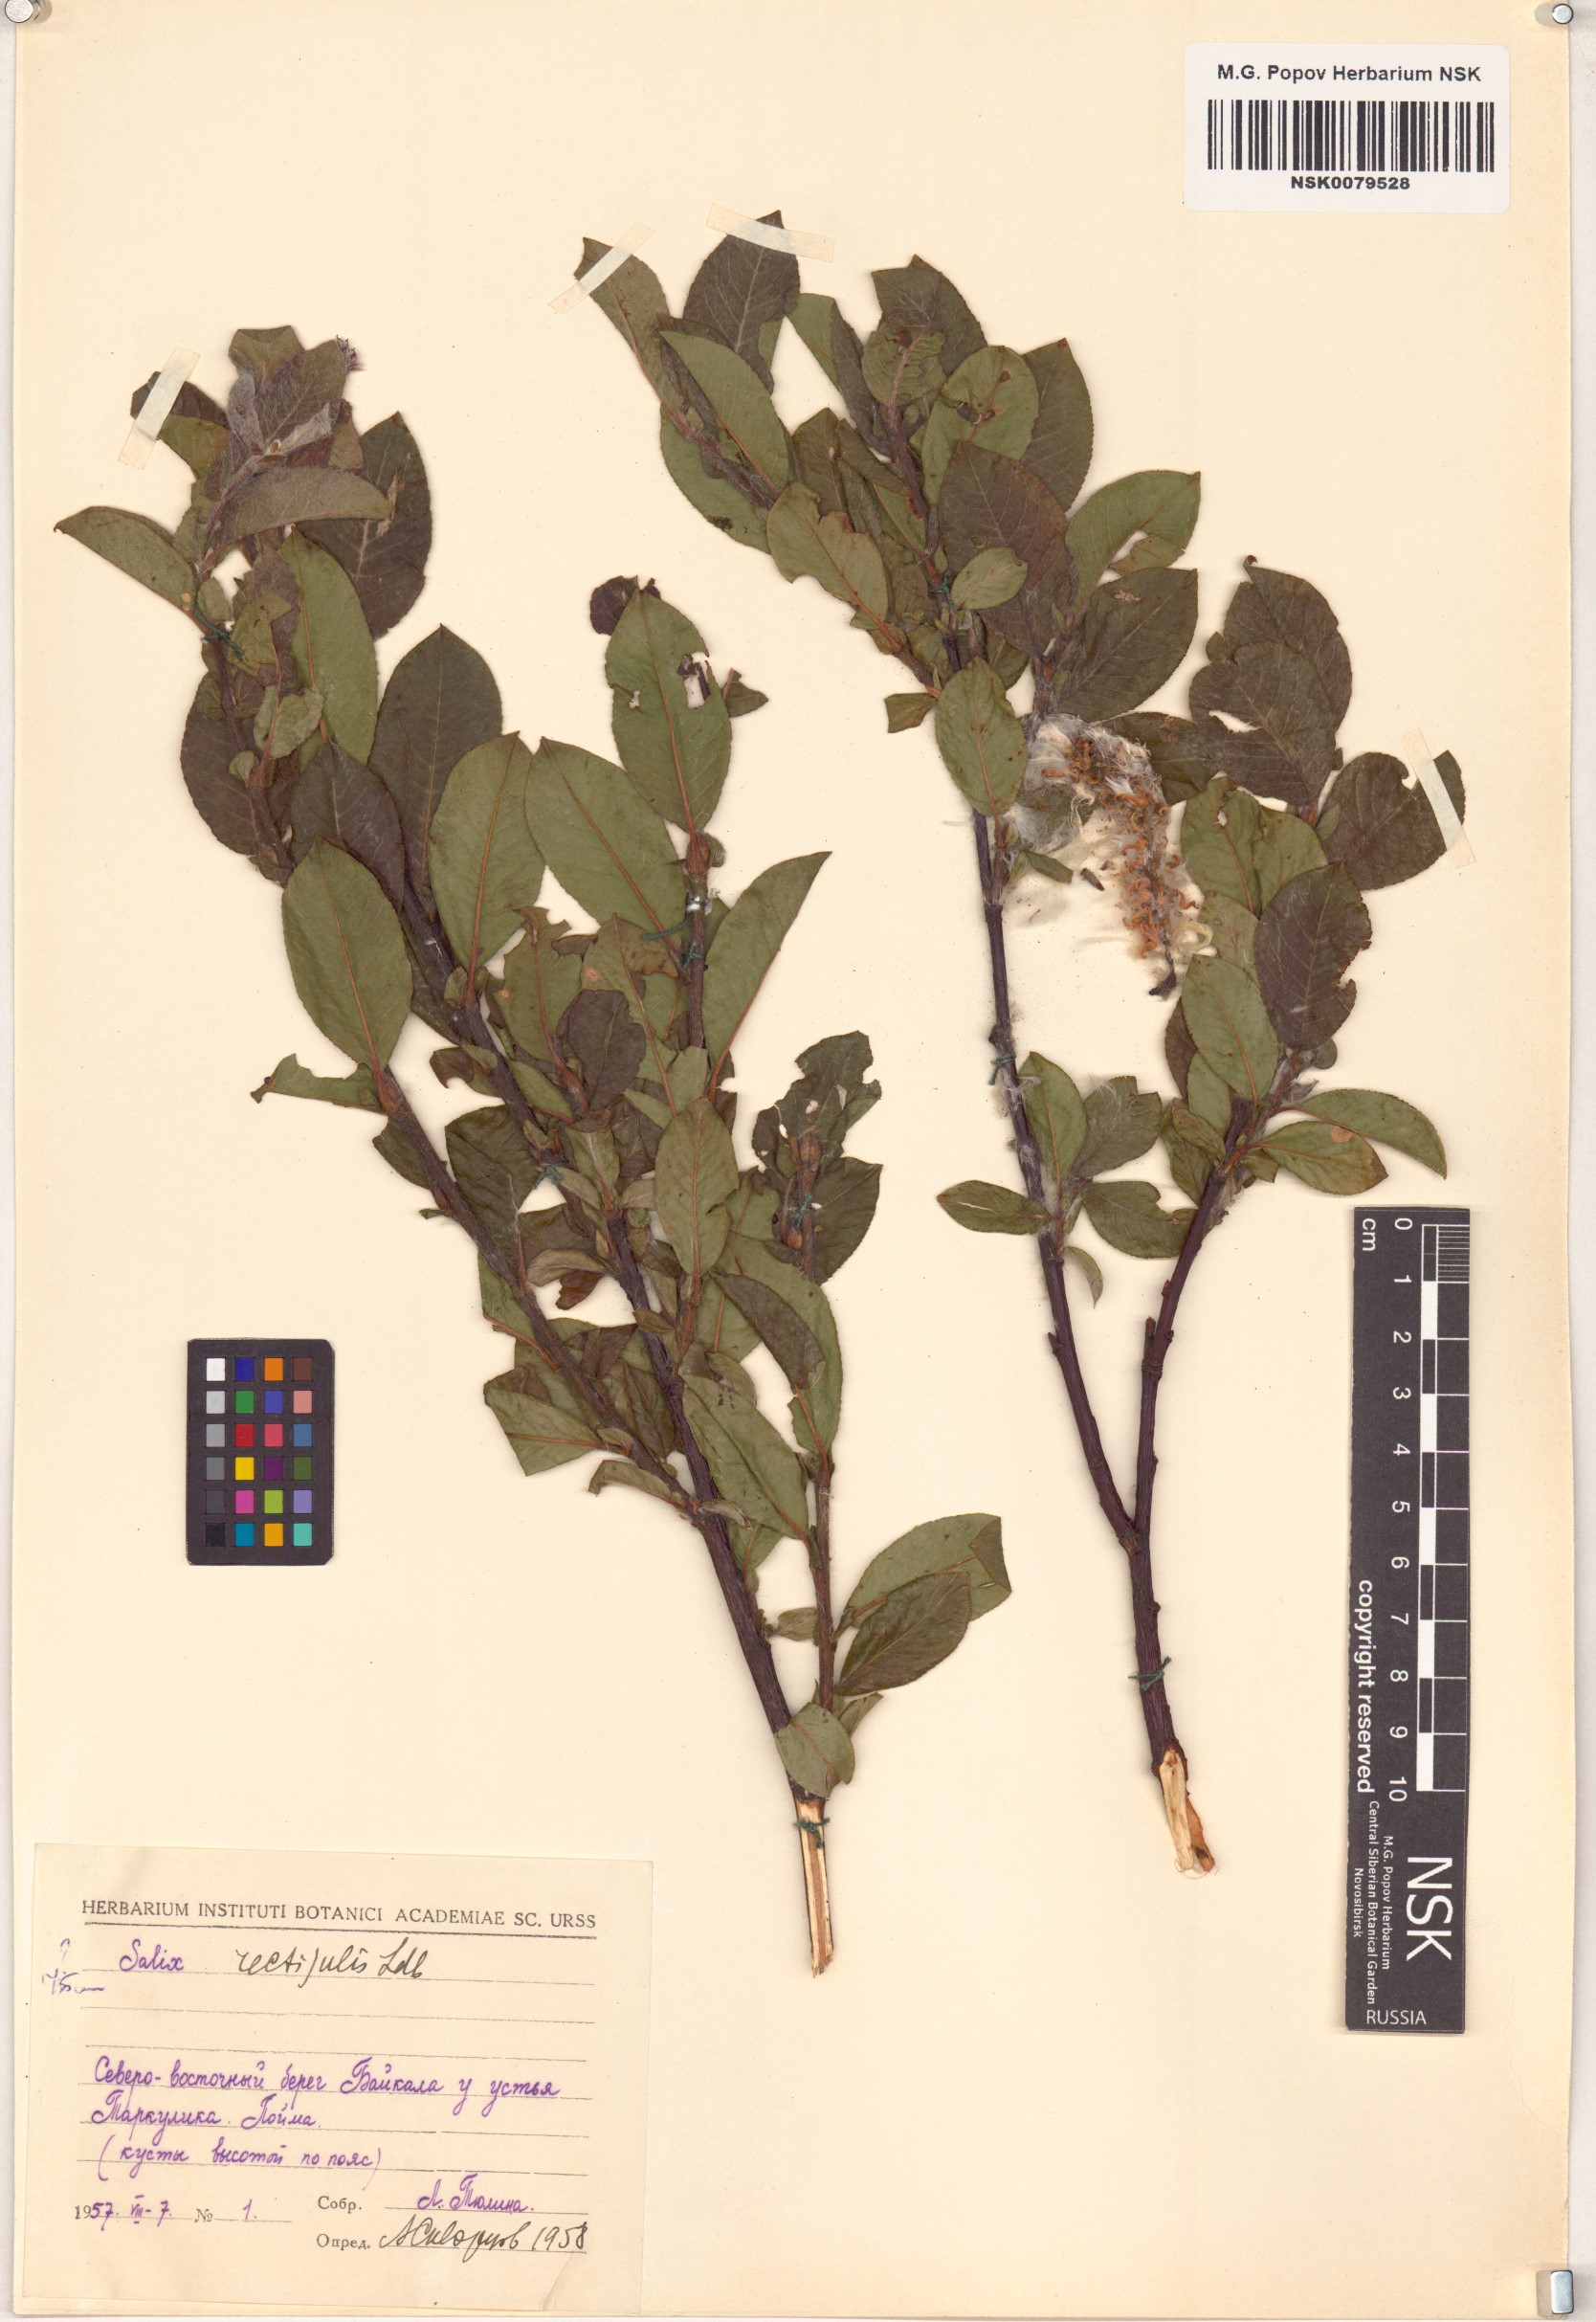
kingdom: Plantae
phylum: Tracheophyta
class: Magnoliopsida
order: Malpighiales
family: Salicaceae
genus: Salix
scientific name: Salix rectijulis
